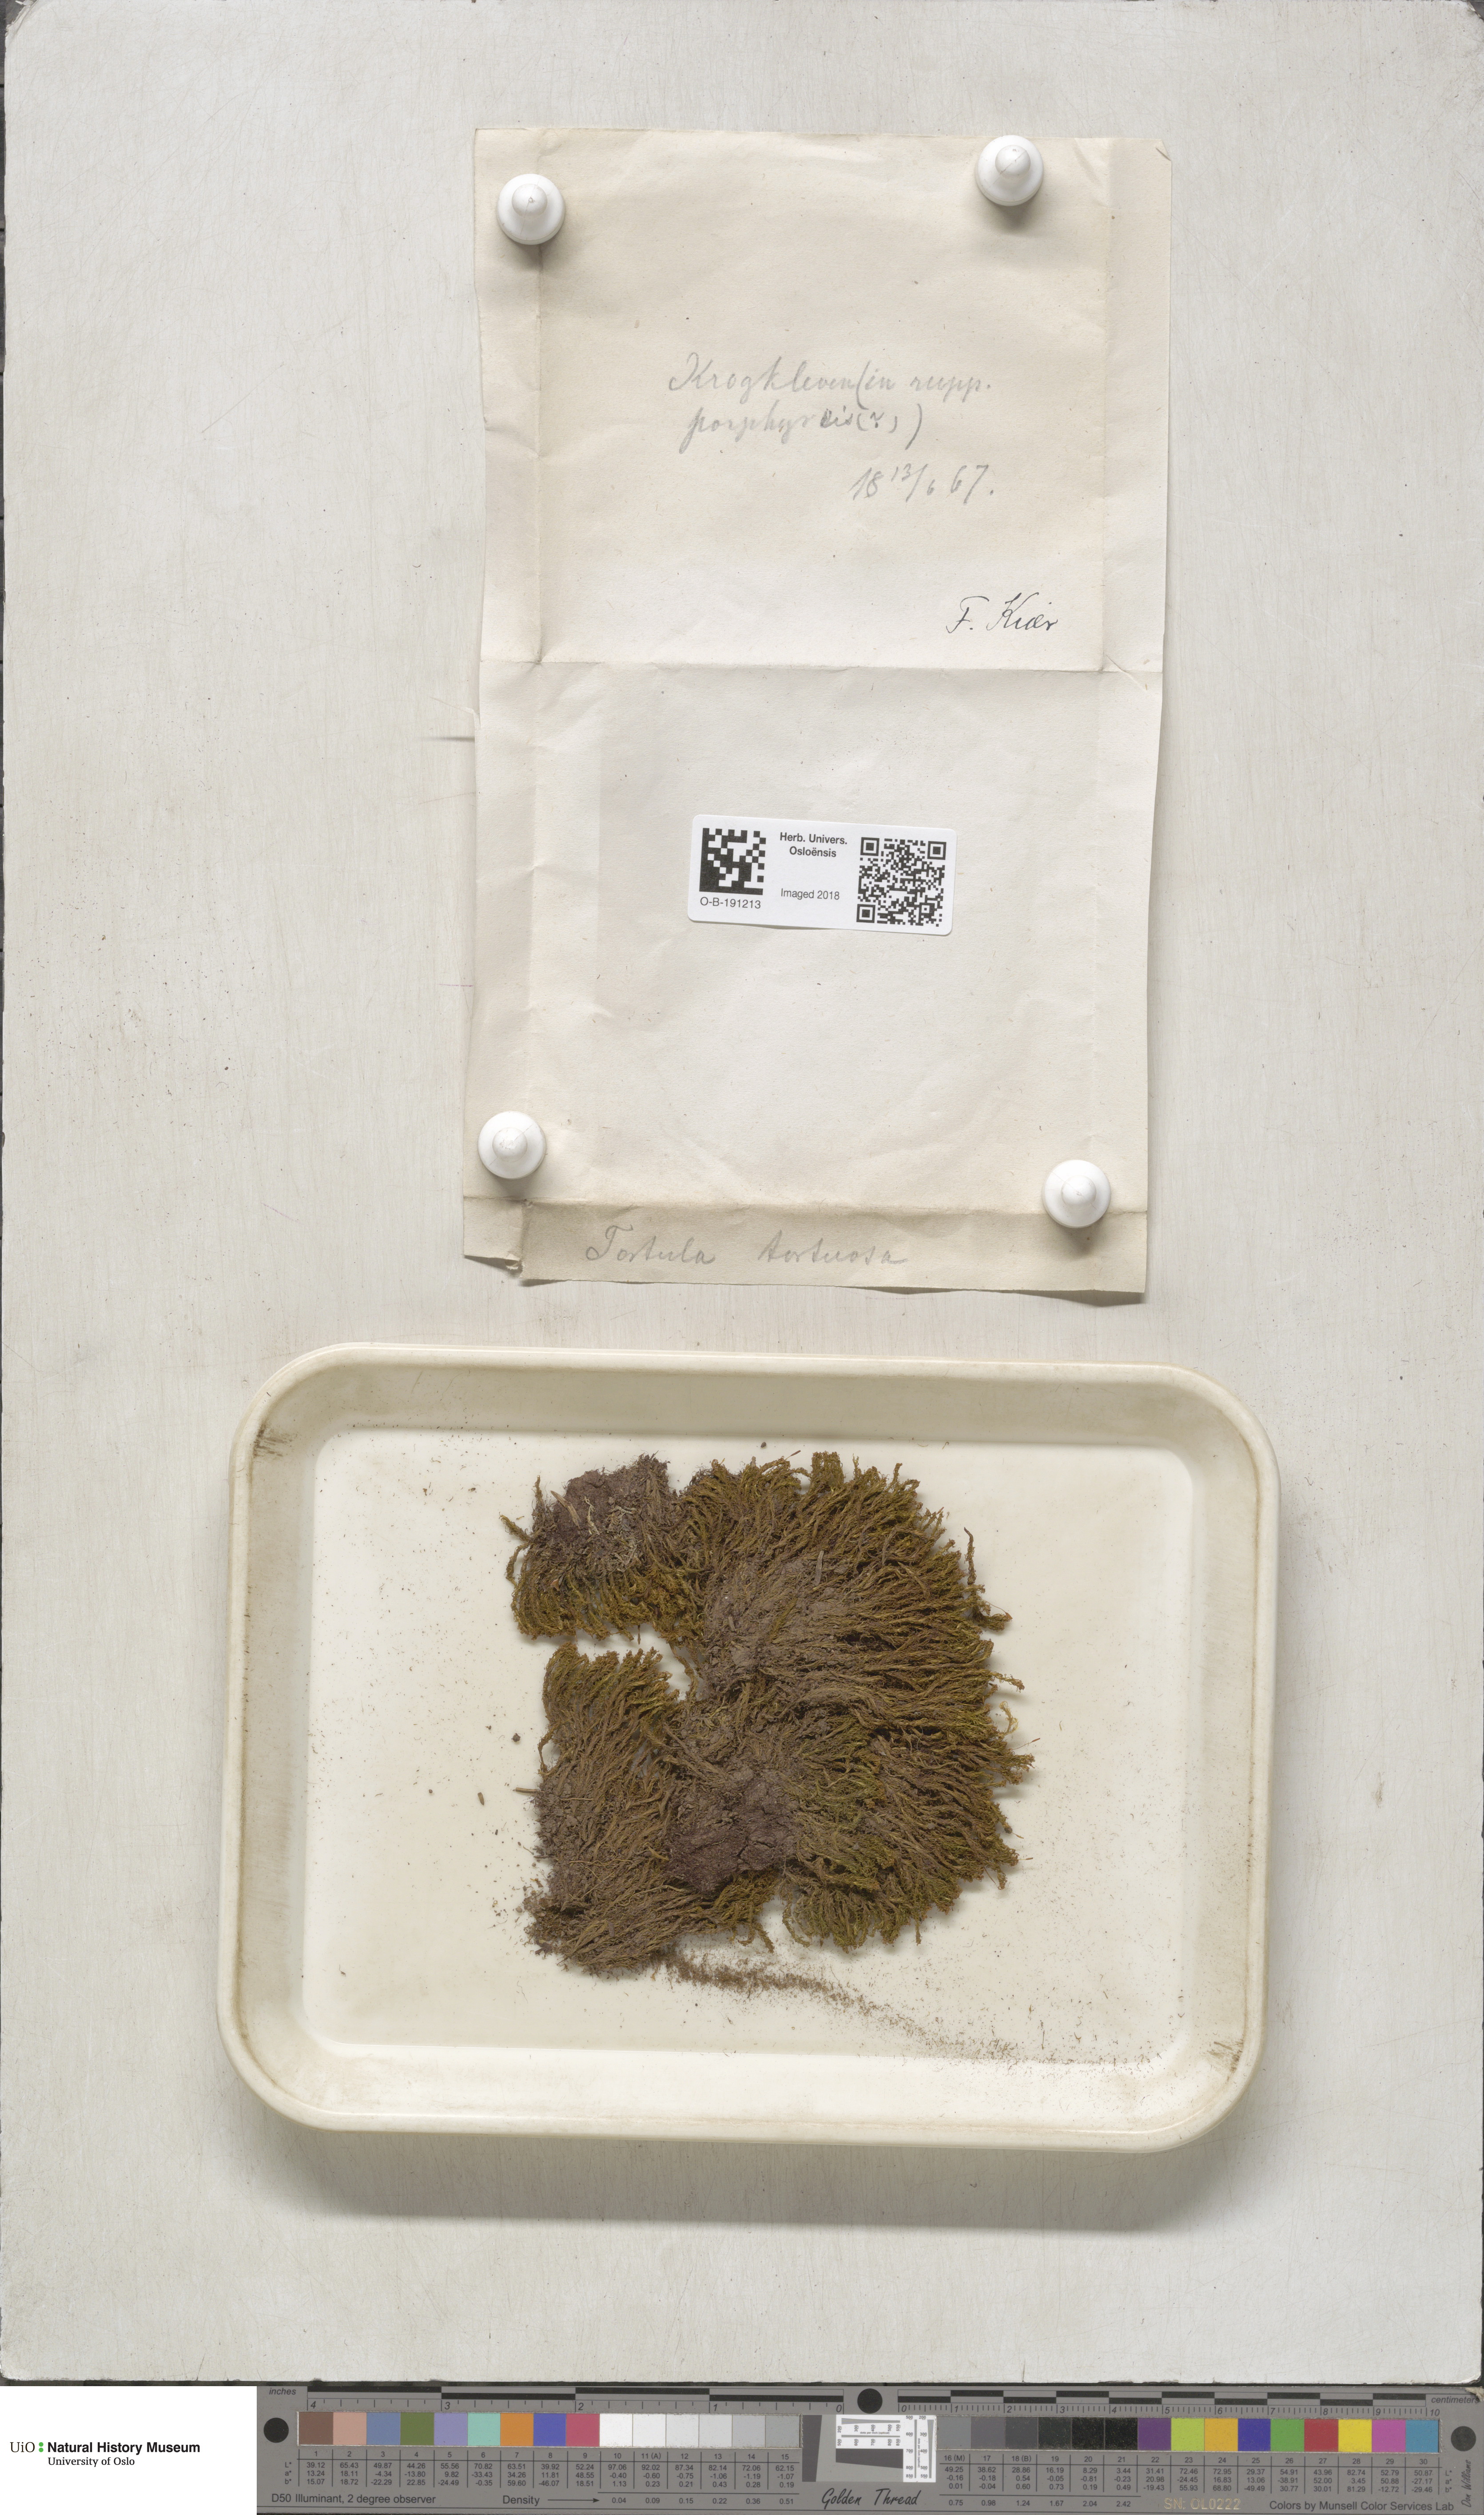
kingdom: Plantae
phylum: Bryophyta
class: Bryopsida
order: Pottiales
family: Pottiaceae
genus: Tortella
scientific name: Tortella tortuosa
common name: Frizzled crisp moss
